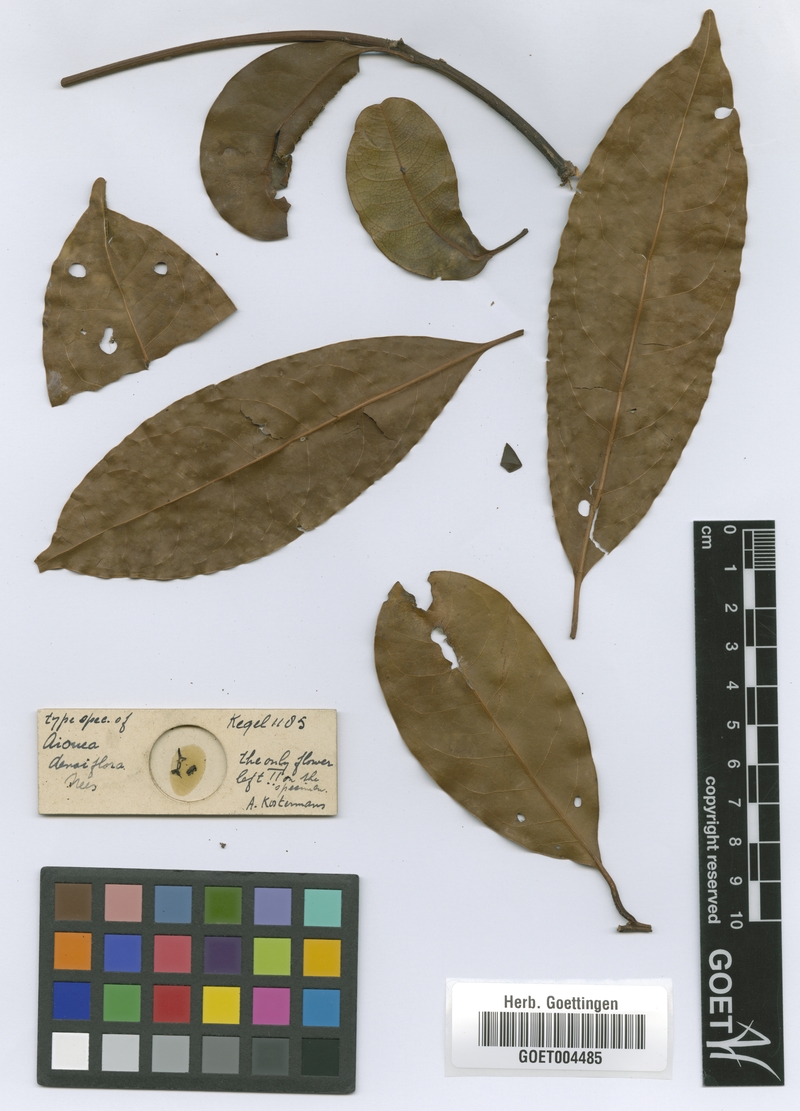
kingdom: Plantae
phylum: Tracheophyta
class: Magnoliopsida
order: Laurales
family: Lauraceae
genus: Aiouea
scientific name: Aiouea laevis
